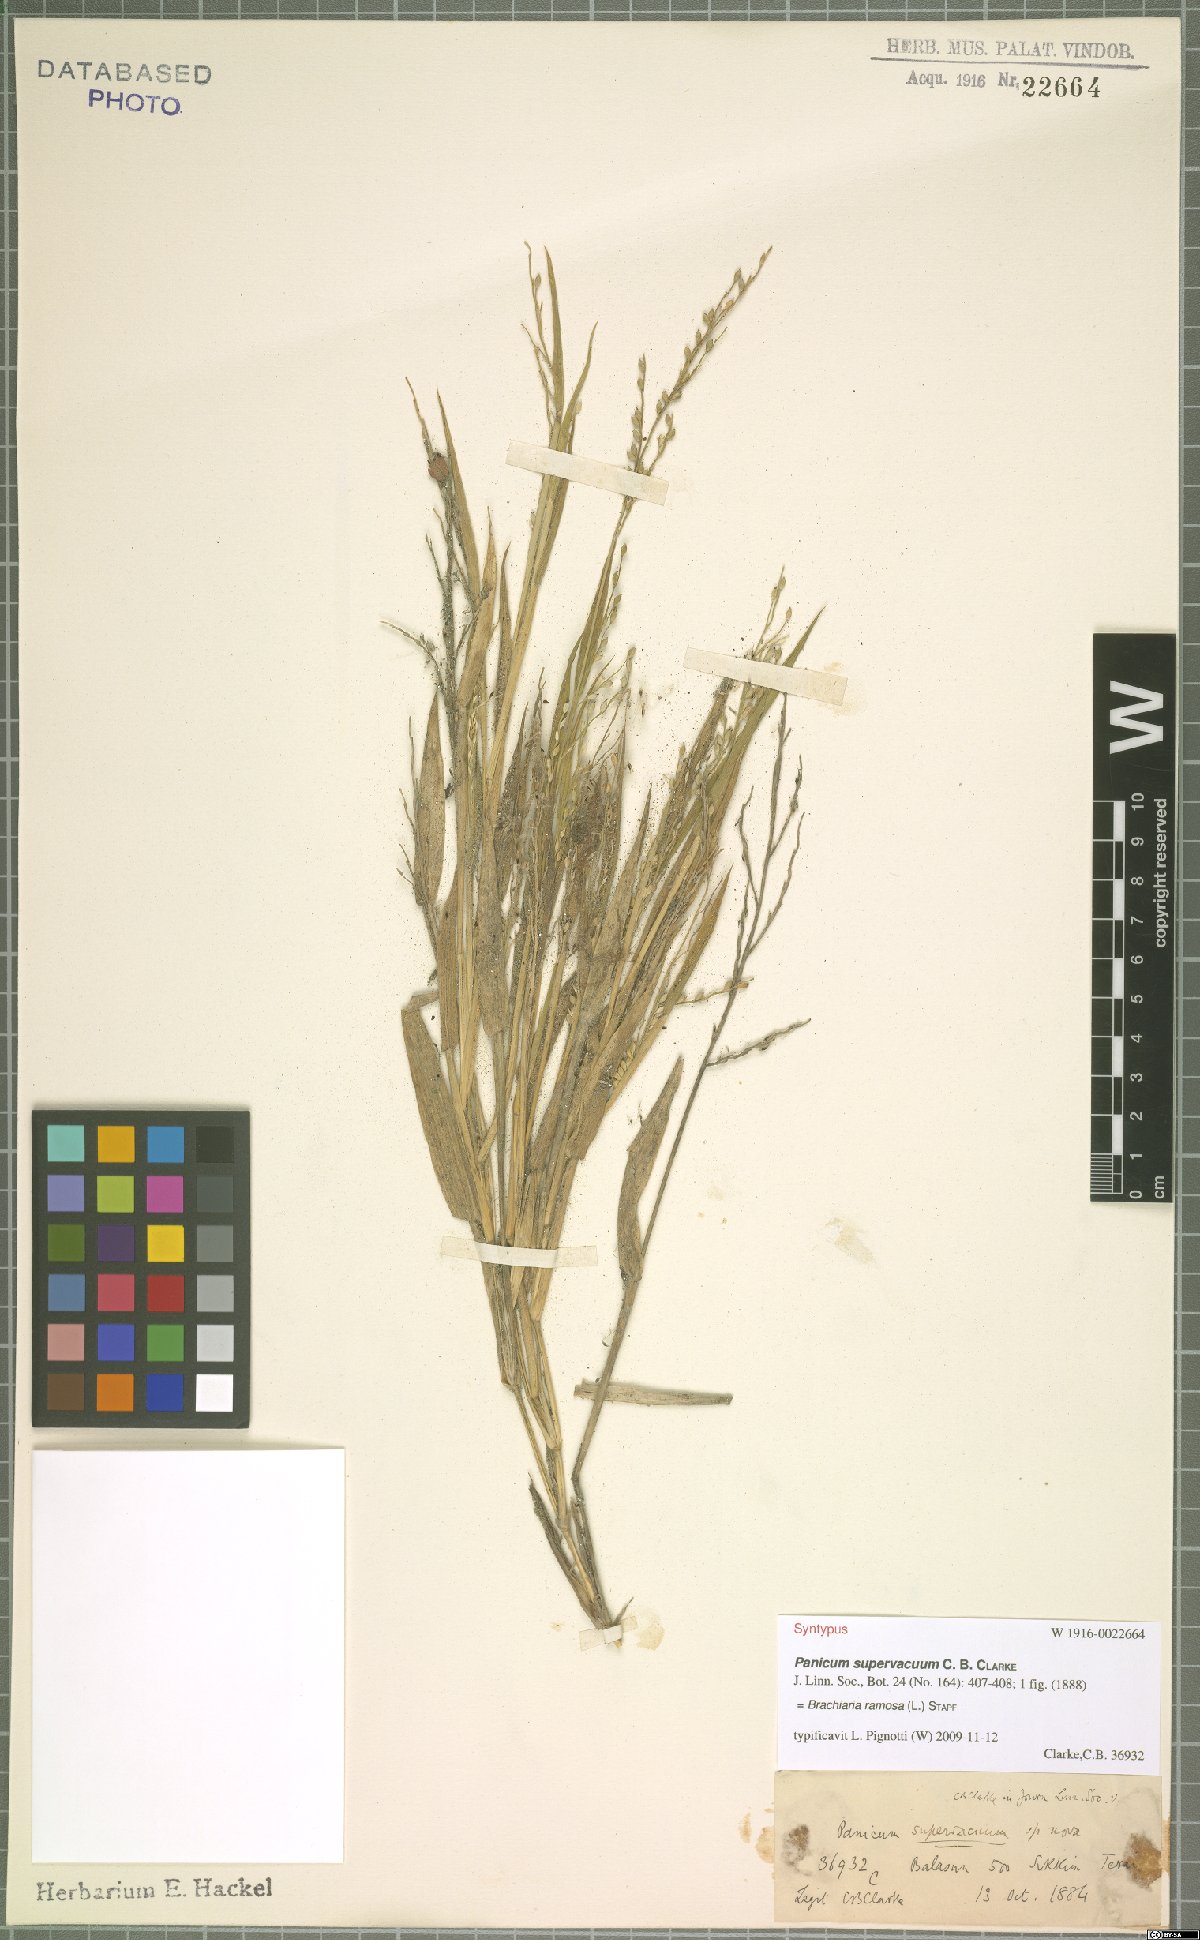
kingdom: Plantae
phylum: Tracheophyta
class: Liliopsida
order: Poales
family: Poaceae
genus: Urochloa
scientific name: Urochloa ramosa
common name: Browntop millet
